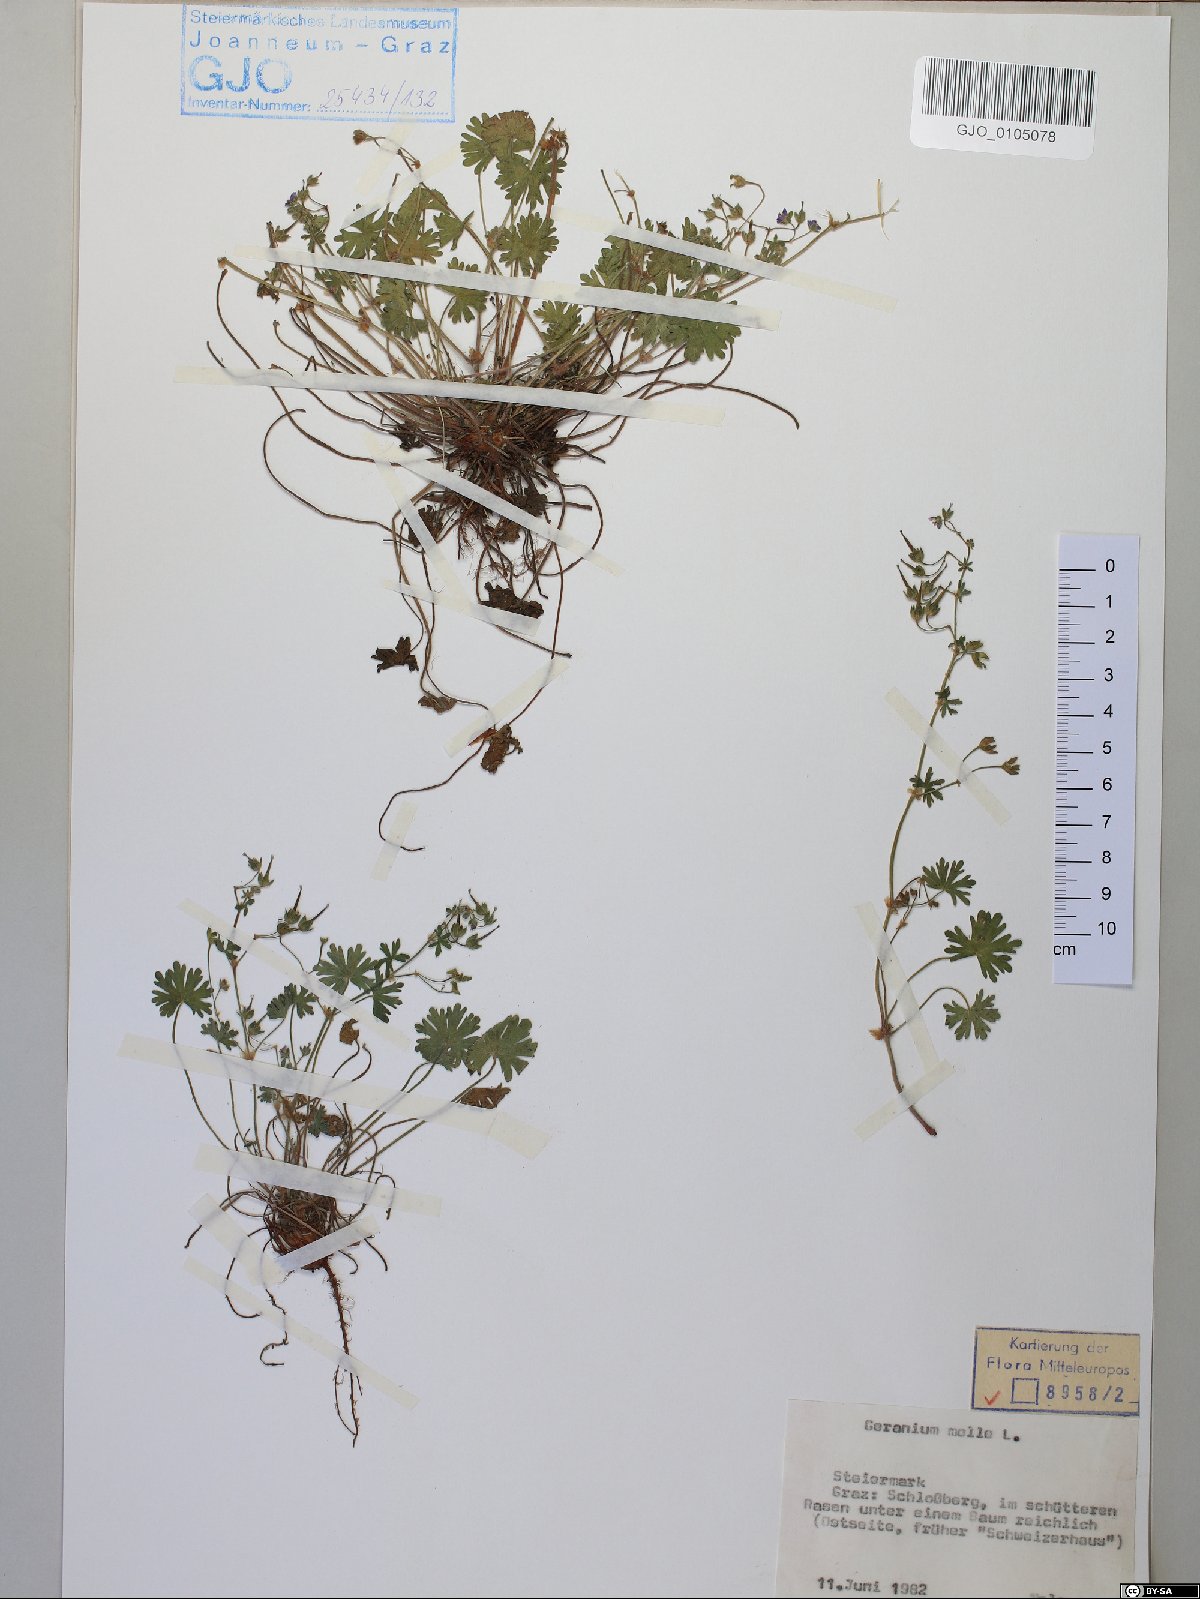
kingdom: Plantae
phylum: Tracheophyta
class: Magnoliopsida
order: Geraniales
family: Geraniaceae
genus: Geranium
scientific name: Geranium molle
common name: Dove's-foot crane's-bill
